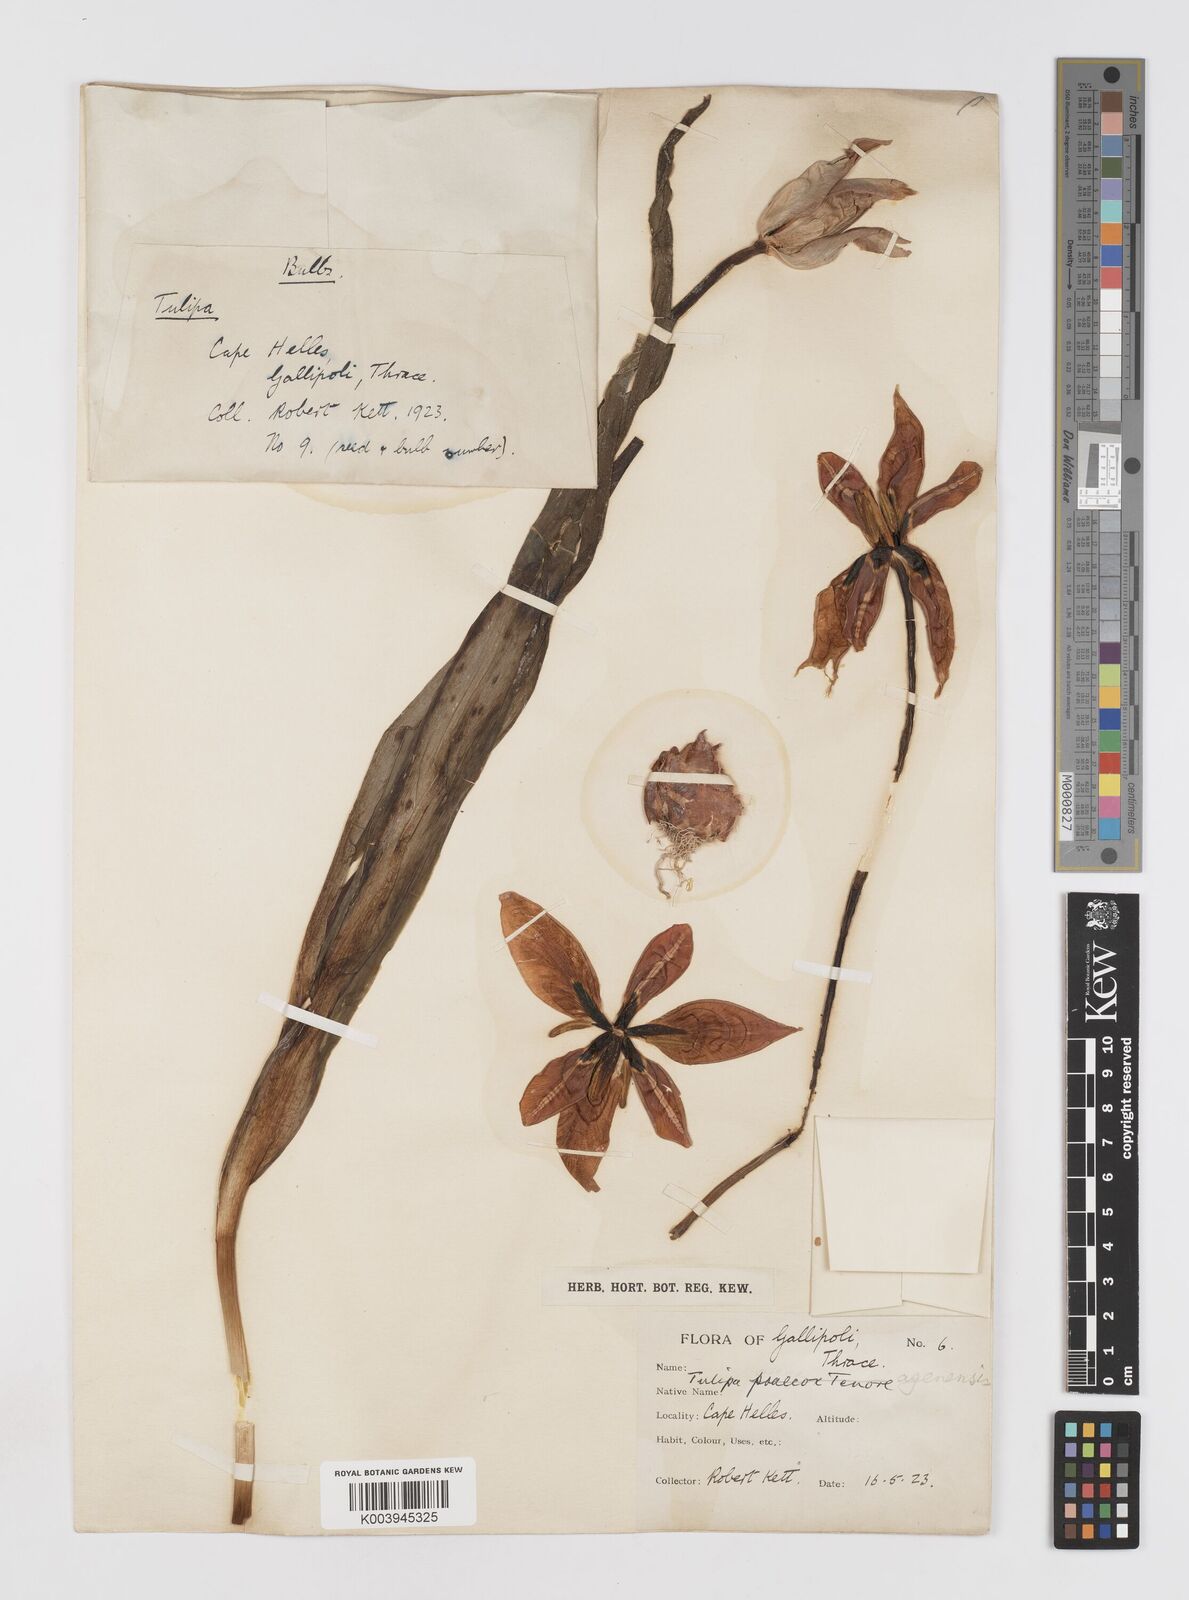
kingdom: Plantae
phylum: Tracheophyta
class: Liliopsida
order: Liliales
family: Liliaceae
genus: Tulipa
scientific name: Tulipa agenensis
